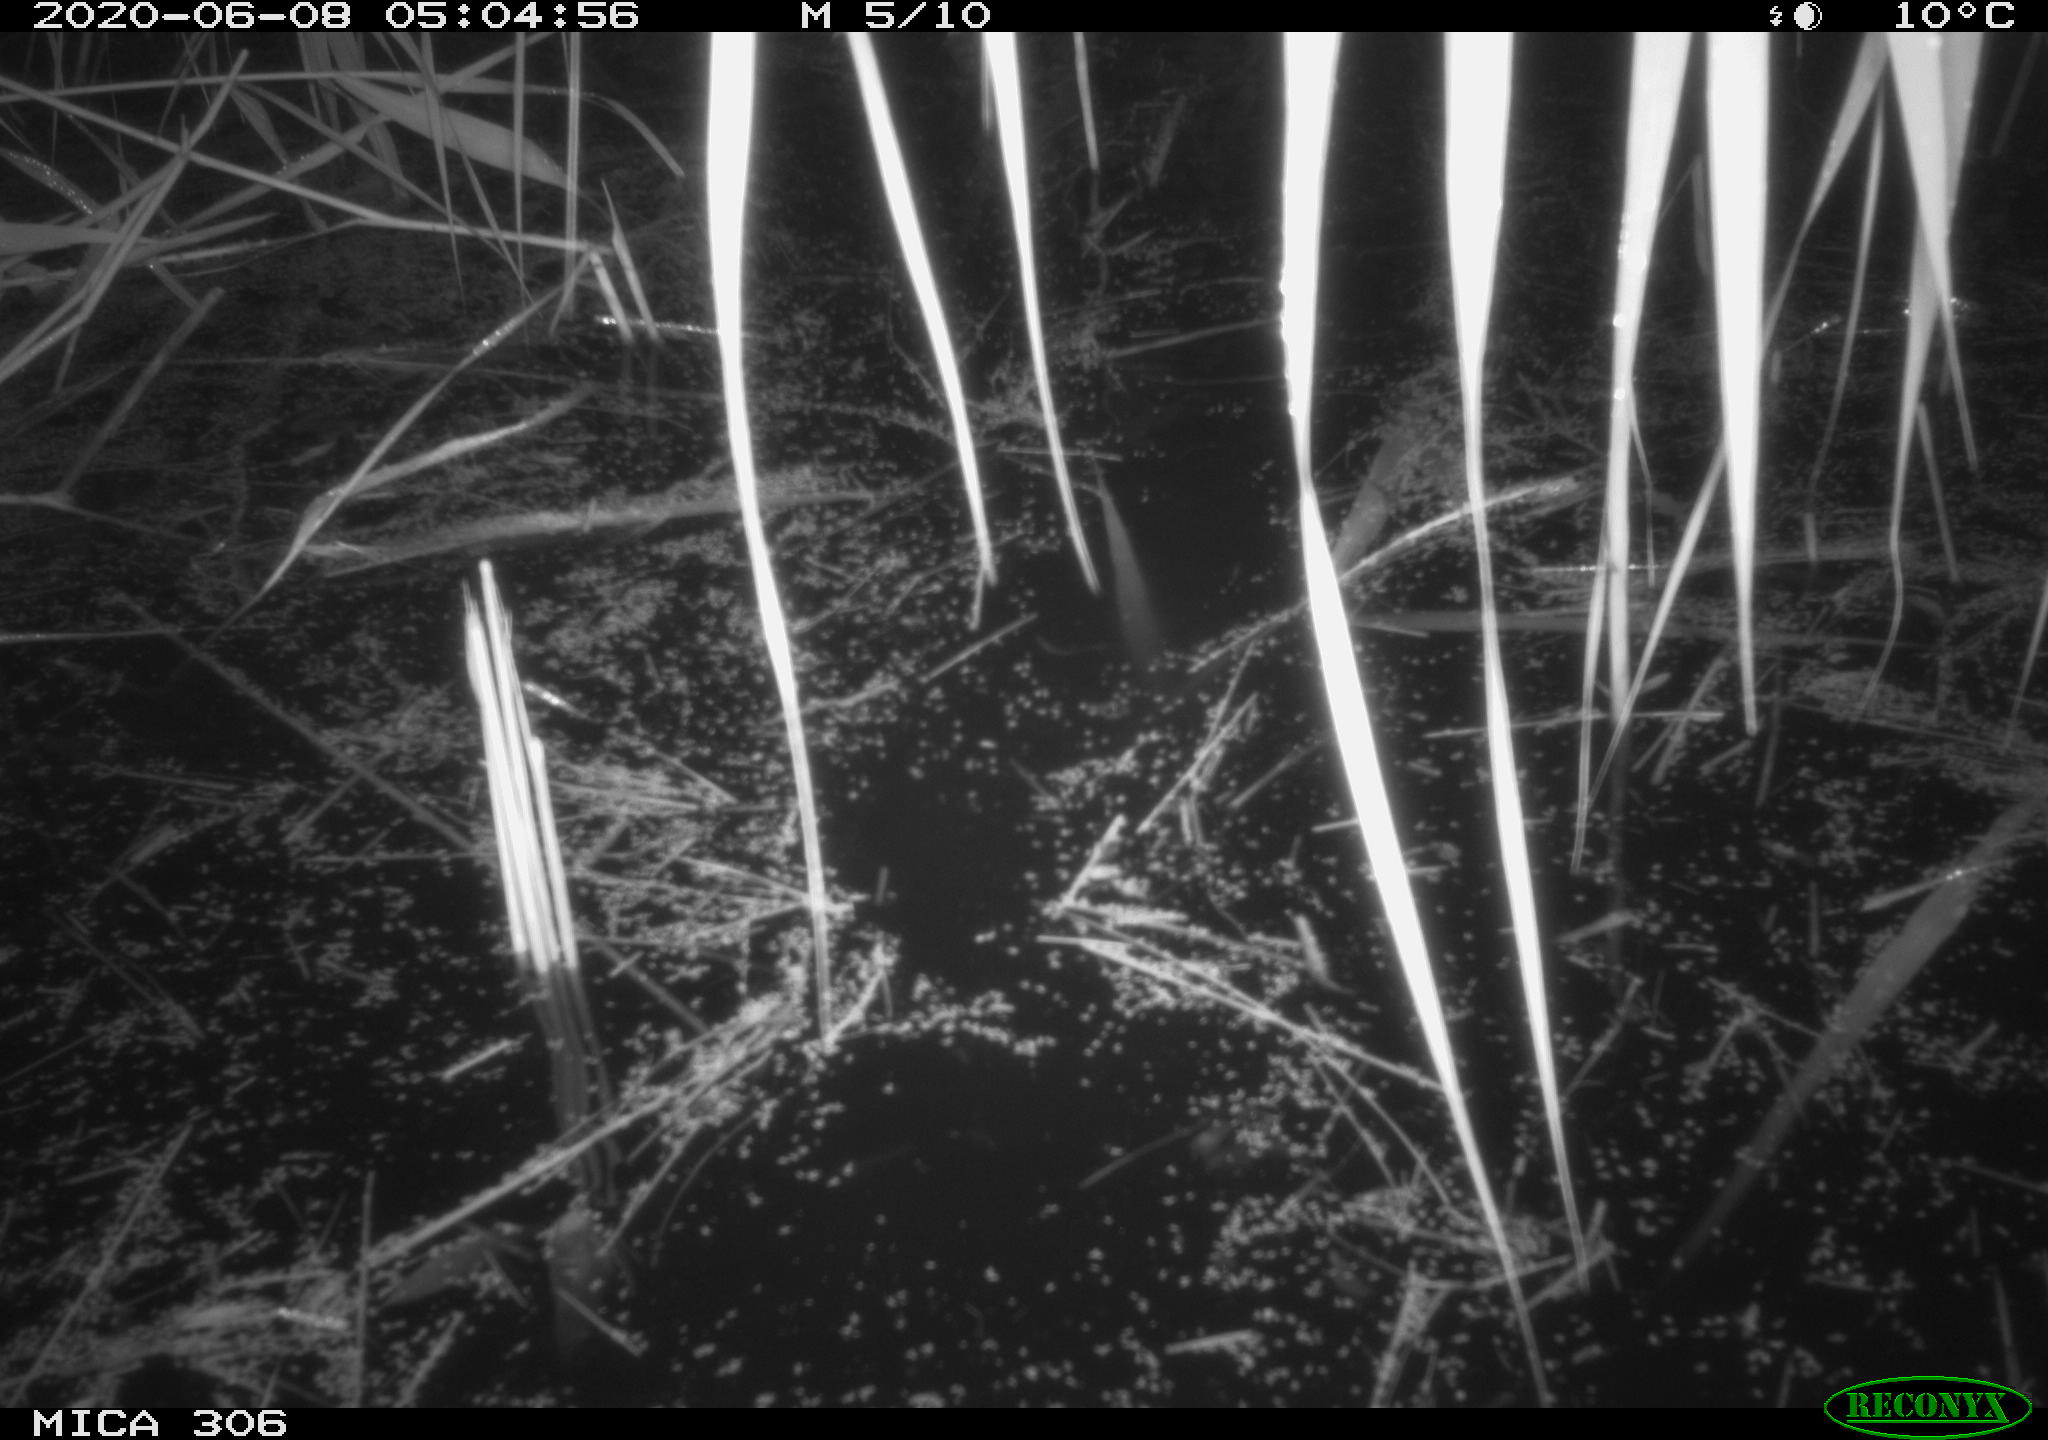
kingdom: Animalia
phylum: Chordata
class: Mammalia
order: Rodentia
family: Muridae
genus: Rattus
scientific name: Rattus norvegicus
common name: Brown rat
